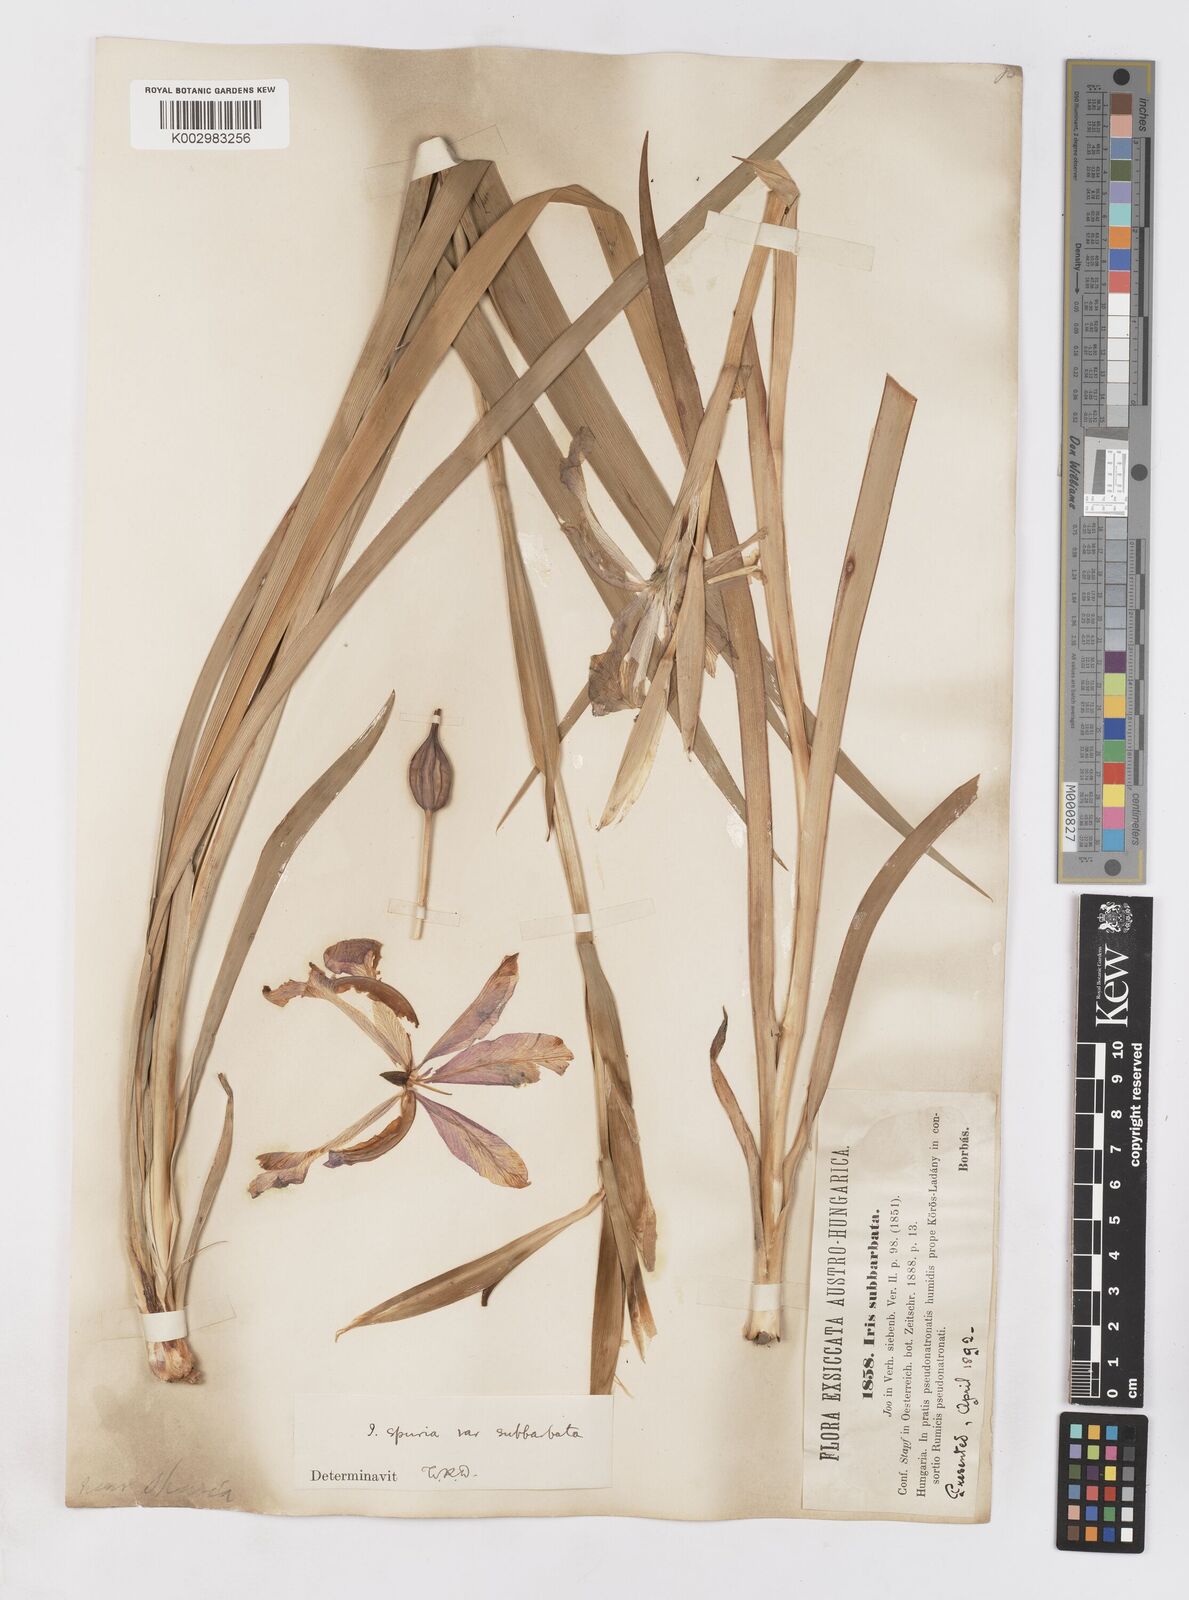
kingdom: Plantae
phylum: Tracheophyta
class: Liliopsida
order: Asparagales
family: Iridaceae
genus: Iris
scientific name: Iris spuria
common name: Blue iris
